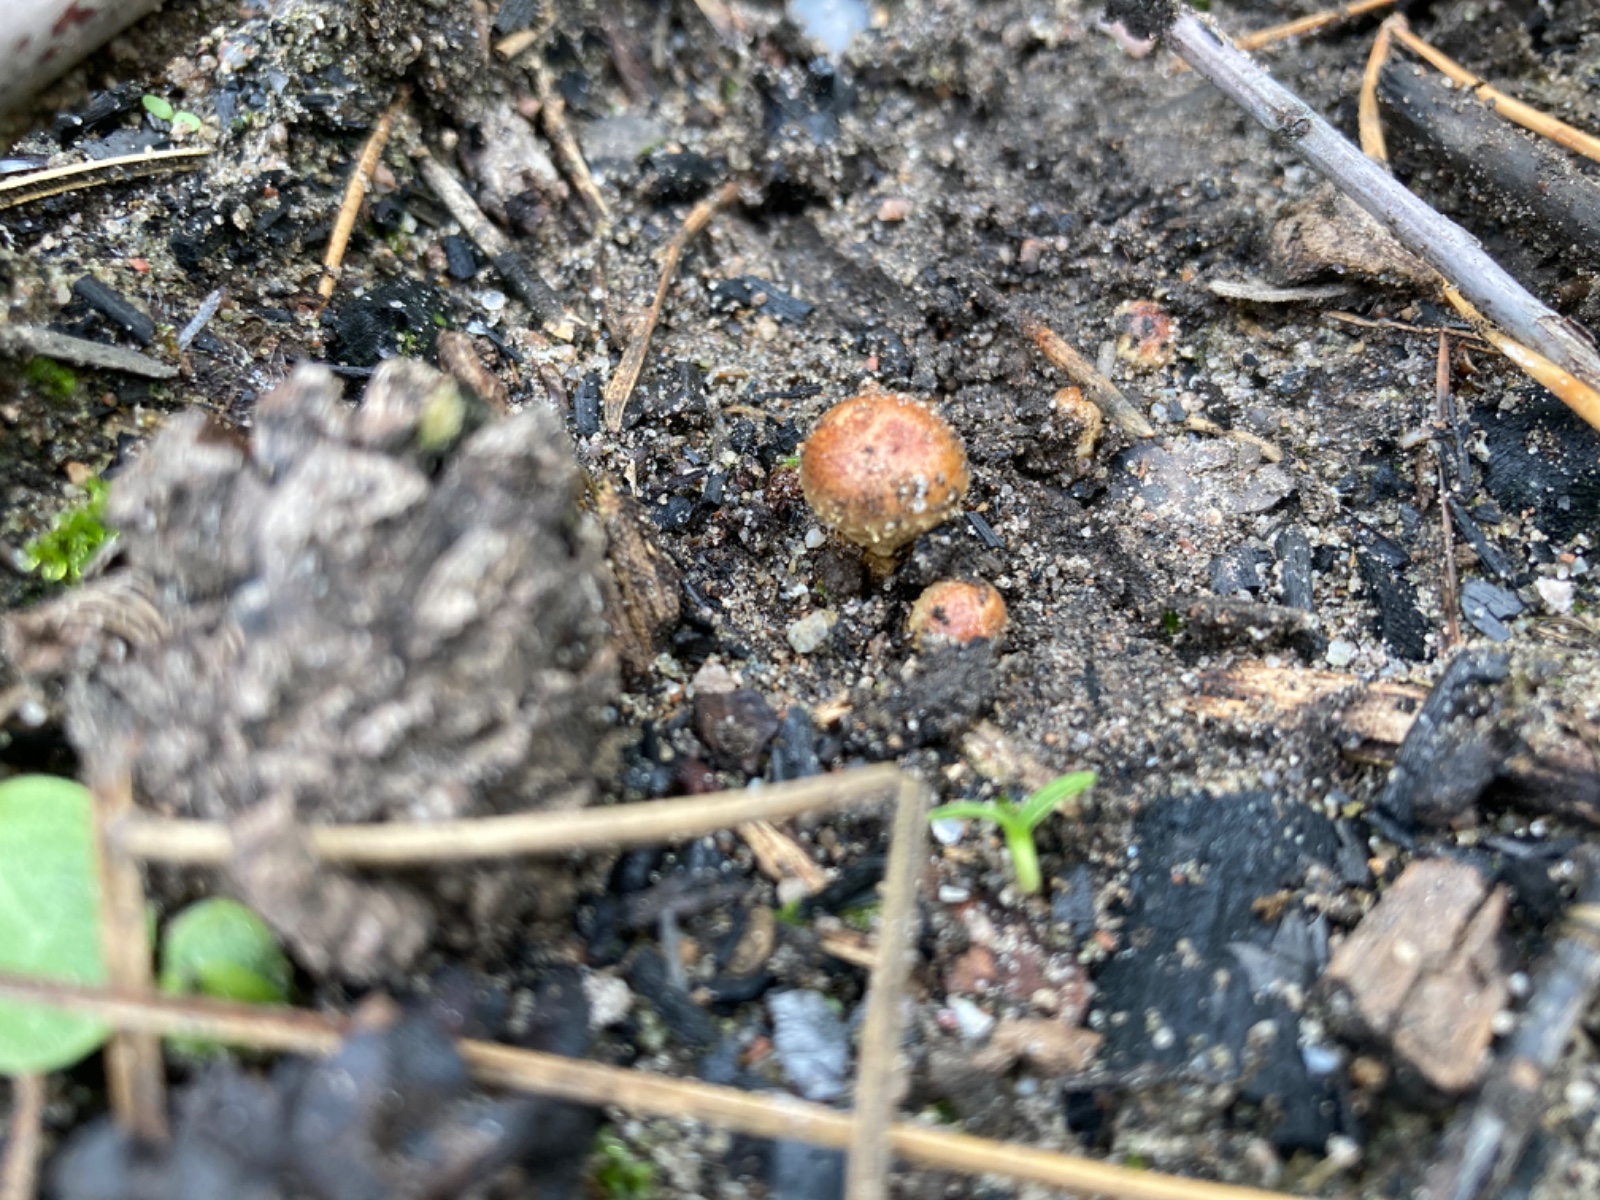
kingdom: Fungi
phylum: Basidiomycota
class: Agaricomycetes
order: Agaricales
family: Strophariaceae
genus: Pholiota
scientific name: Pholiota carbonaria
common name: kul-skælhat
